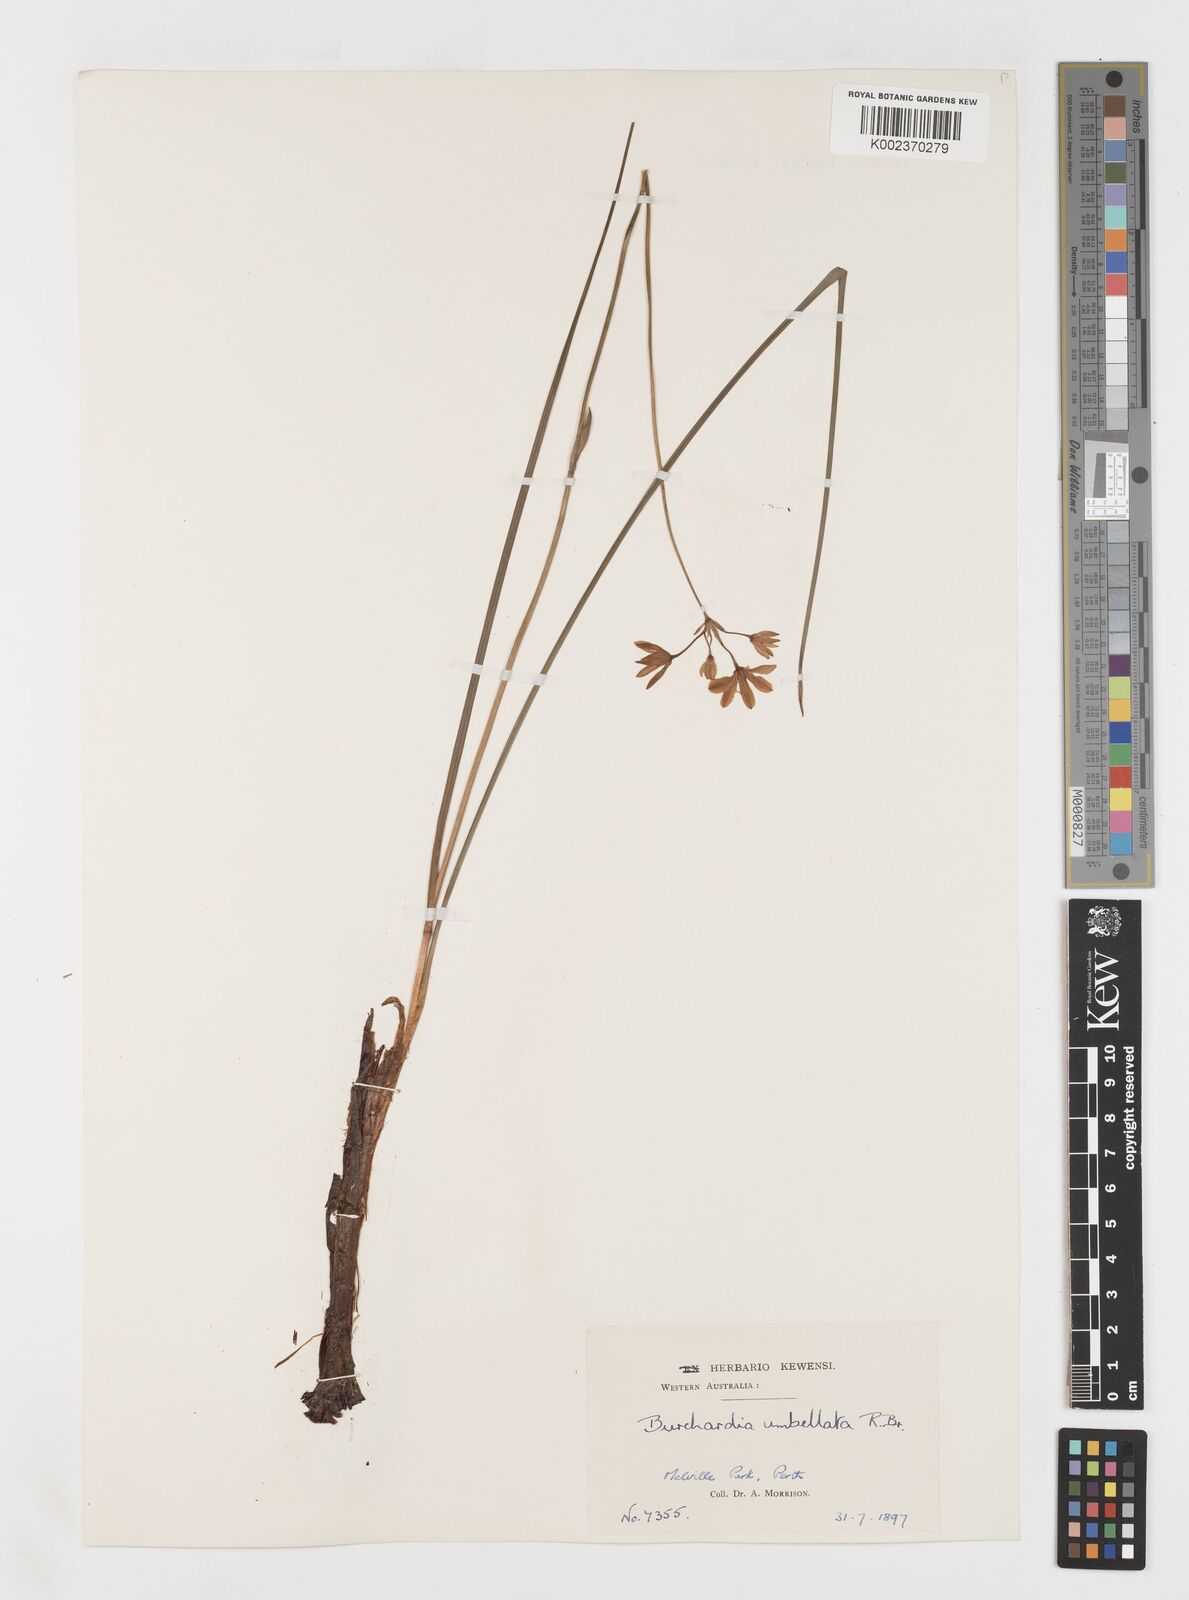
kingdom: Plantae
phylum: Tracheophyta
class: Liliopsida
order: Liliales
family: Colchicaceae
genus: Burchardia
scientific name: Burchardia umbellata
